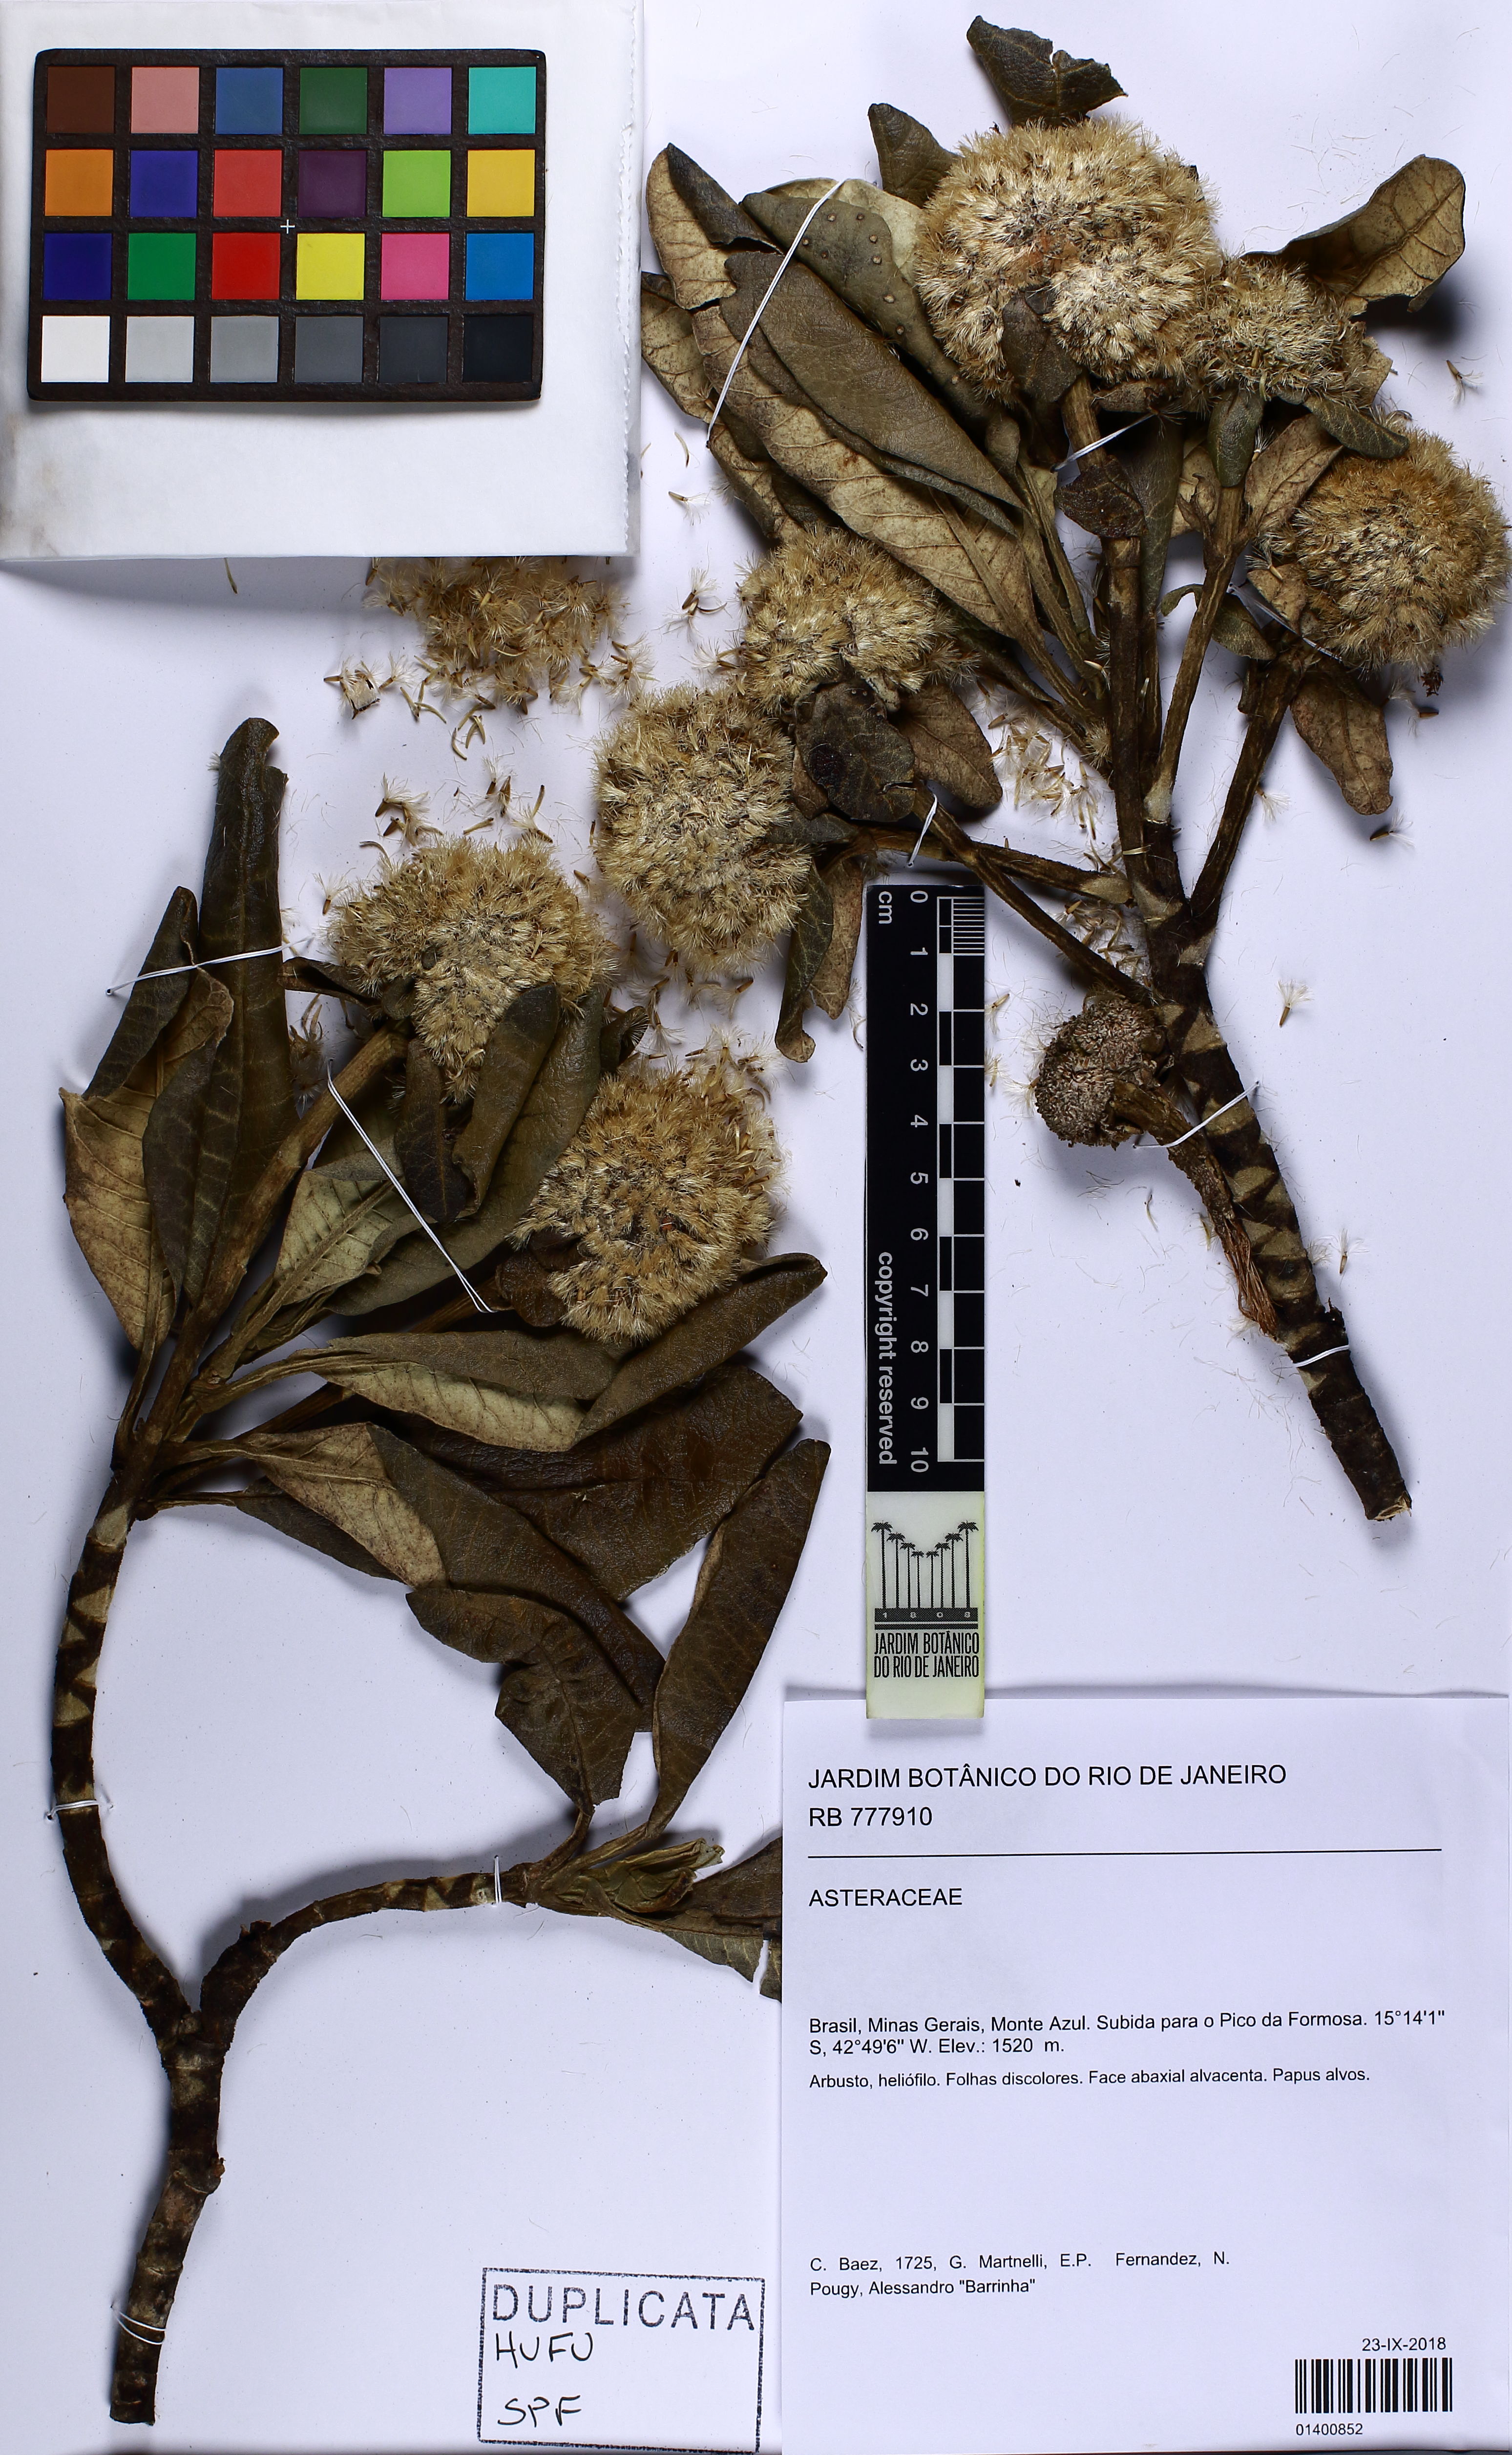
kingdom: Plantae
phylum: Tracheophyta
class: Magnoliopsida
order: Asterales
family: Asteraceae
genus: Eremanthus
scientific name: Eremanthus
